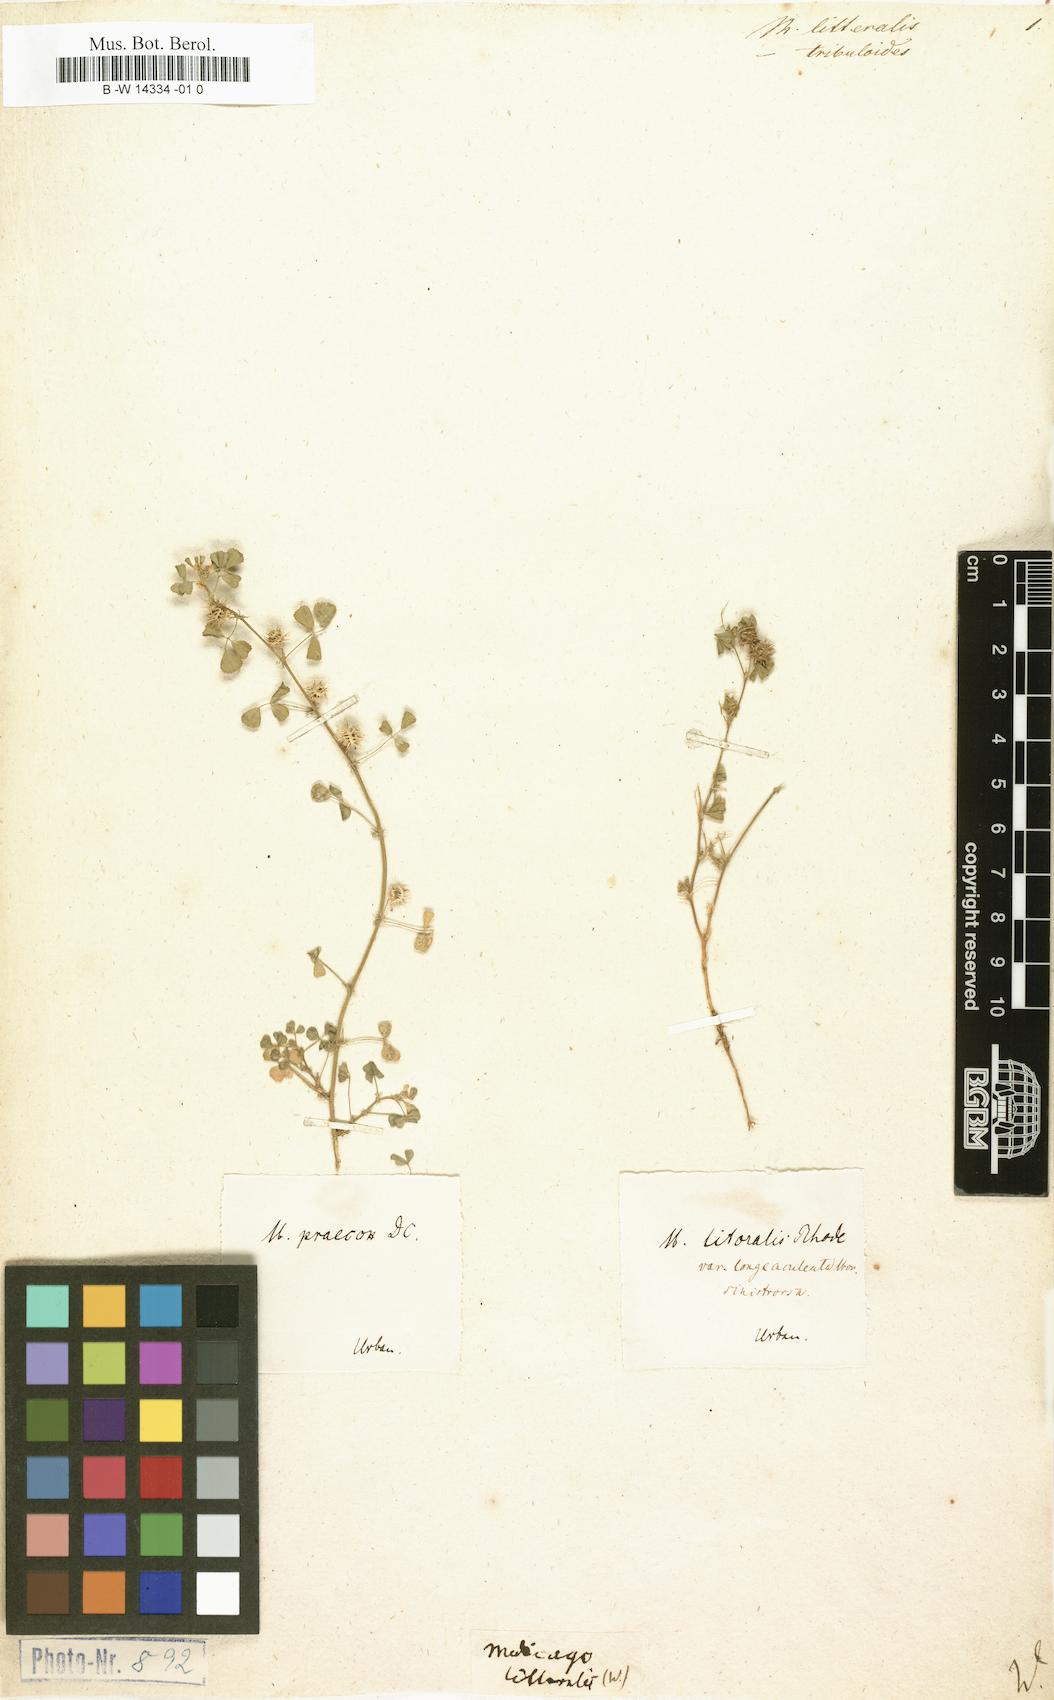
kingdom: Plantae
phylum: Tracheophyta
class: Magnoliopsida
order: Fabales
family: Fabaceae
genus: Medicago
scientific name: Medicago littoralis
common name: Shore medick
